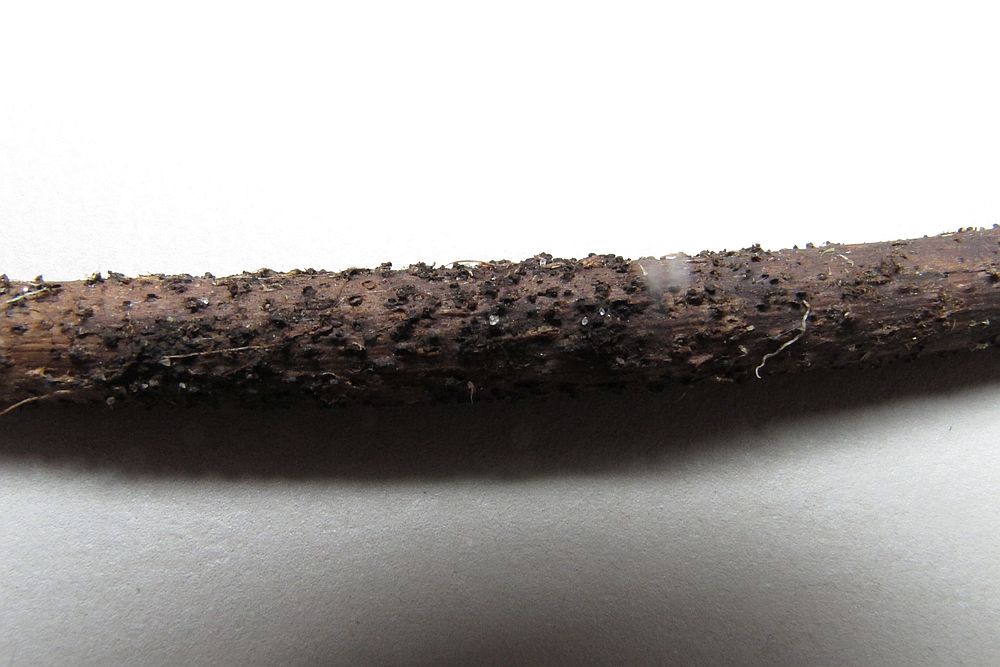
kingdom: Fungi
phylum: Ascomycota
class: Dothideomycetes
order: Pleosporales
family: Lophiostomataceae
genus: Lophiostoma
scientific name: Lophiostoma macrostomum
